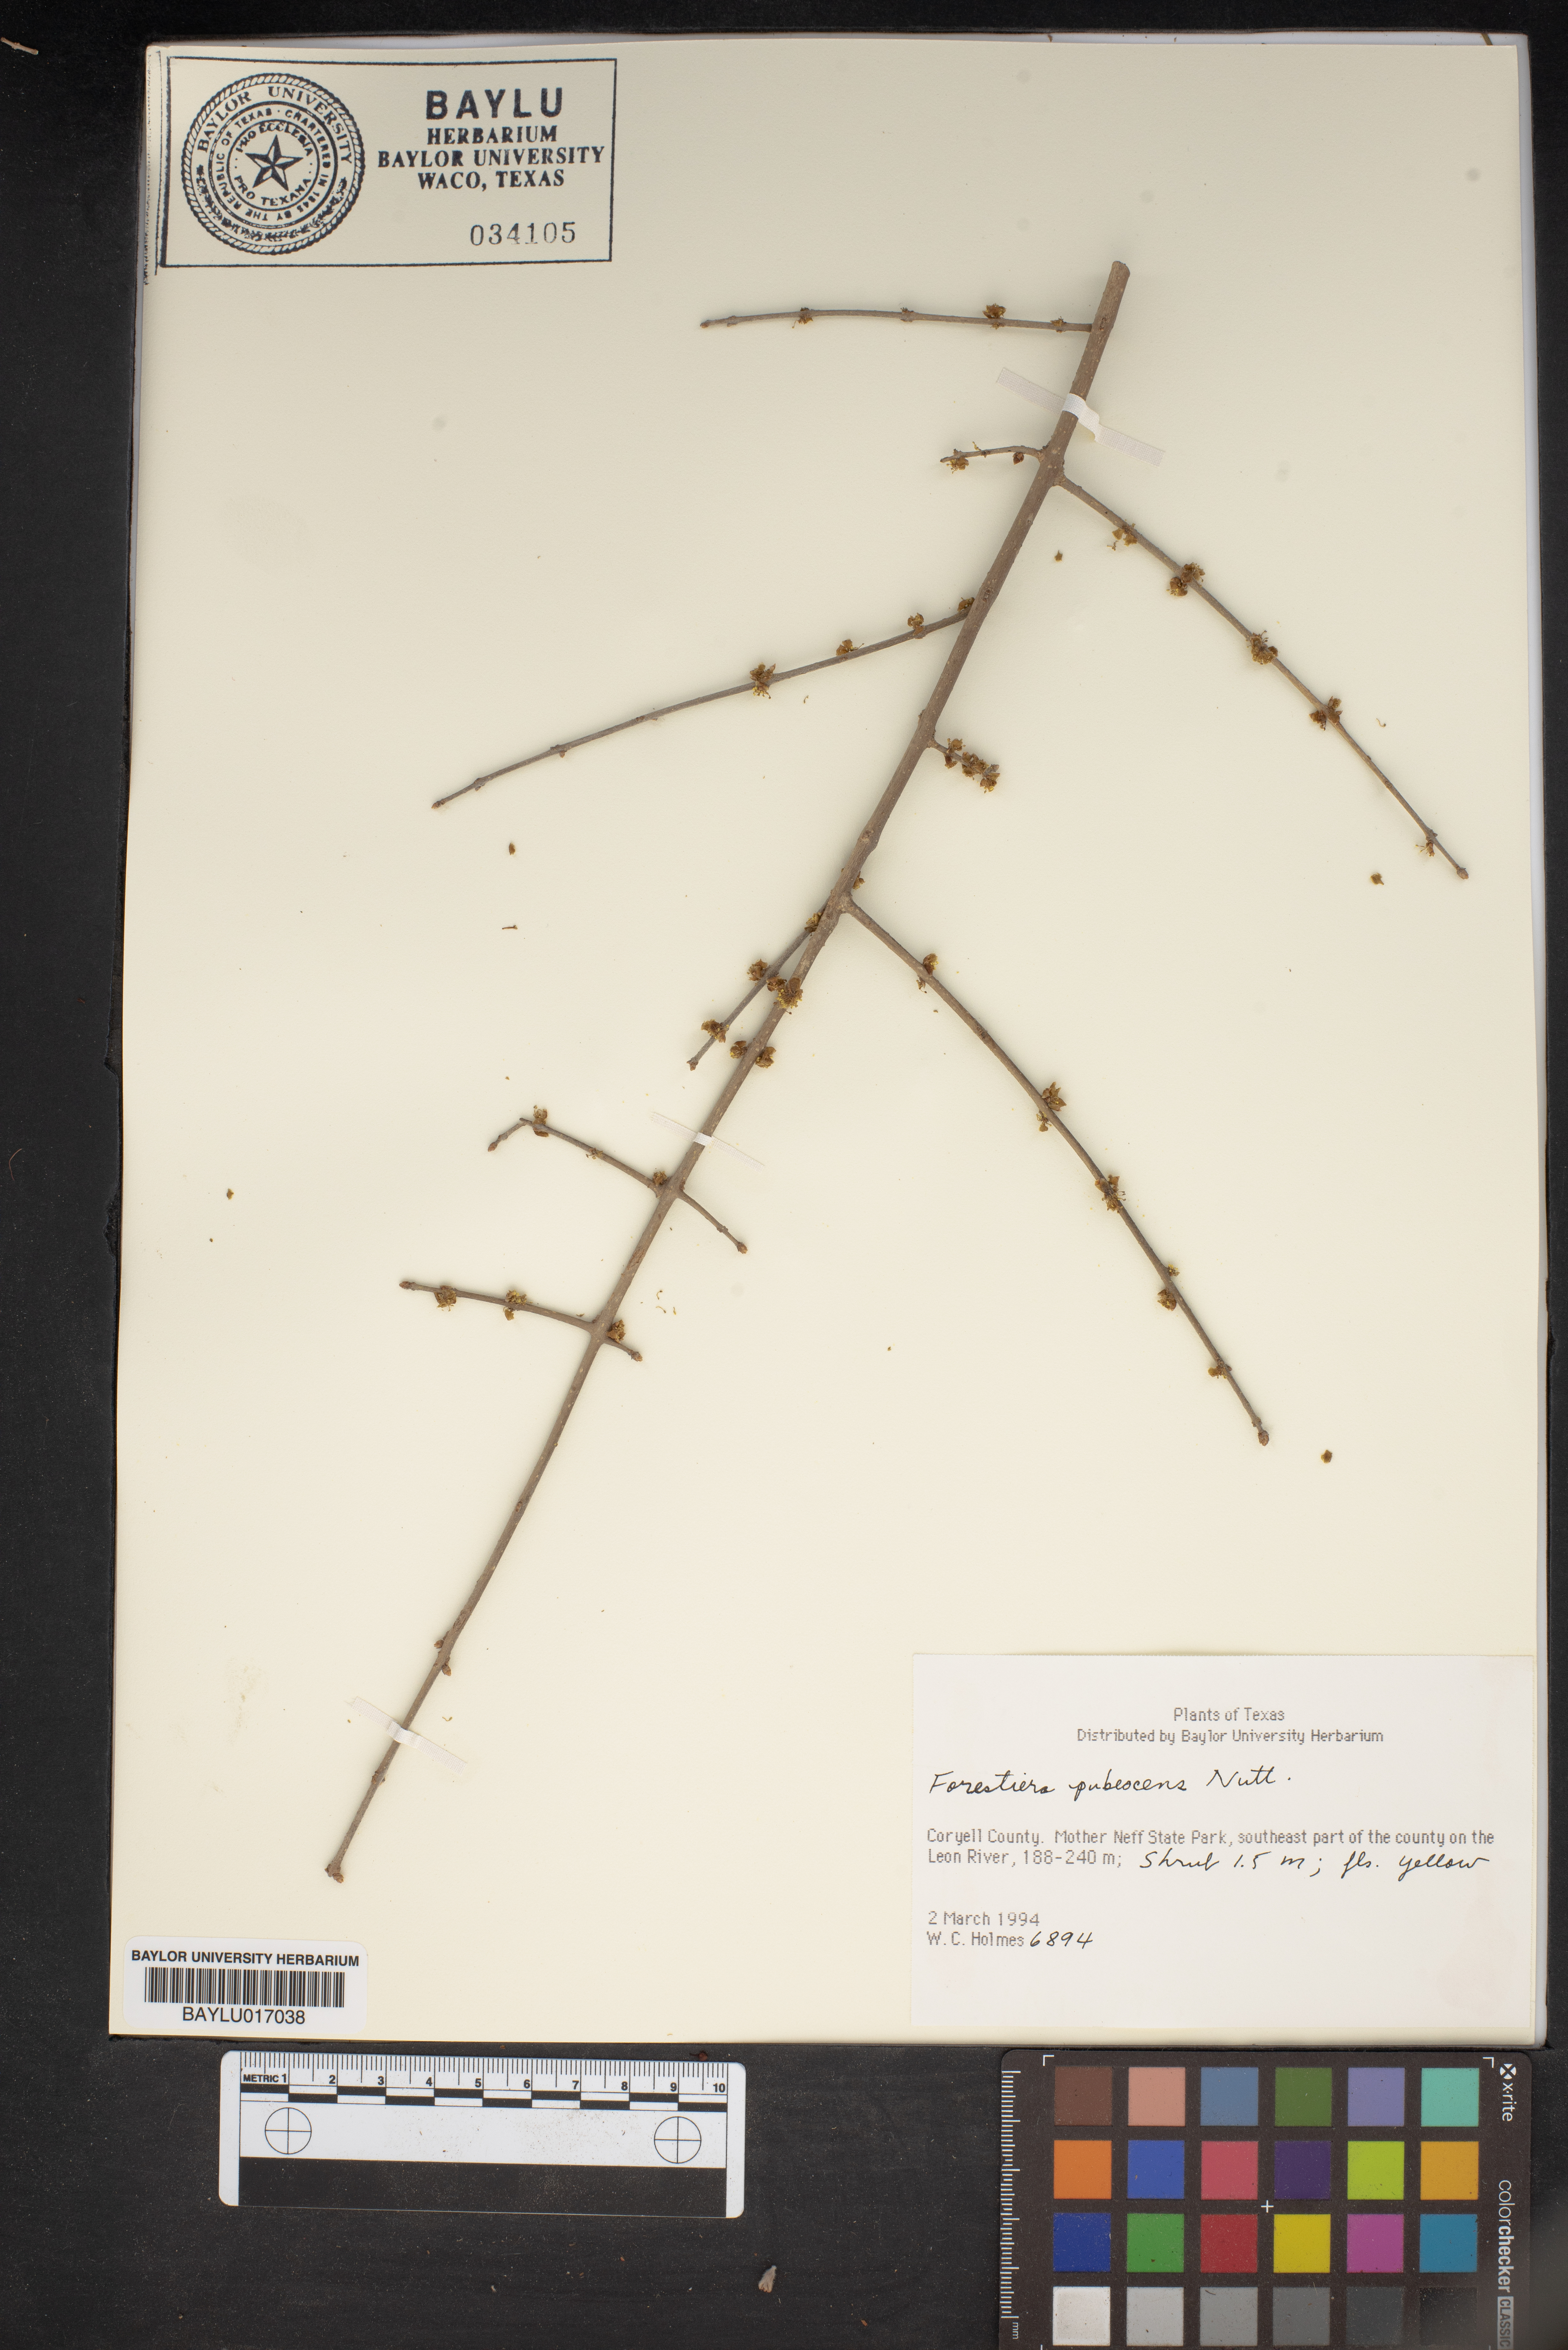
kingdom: Plantae
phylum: Tracheophyta
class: Magnoliopsida
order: Lamiales
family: Oleaceae
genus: Forestiera
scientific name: Forestiera pubescens
